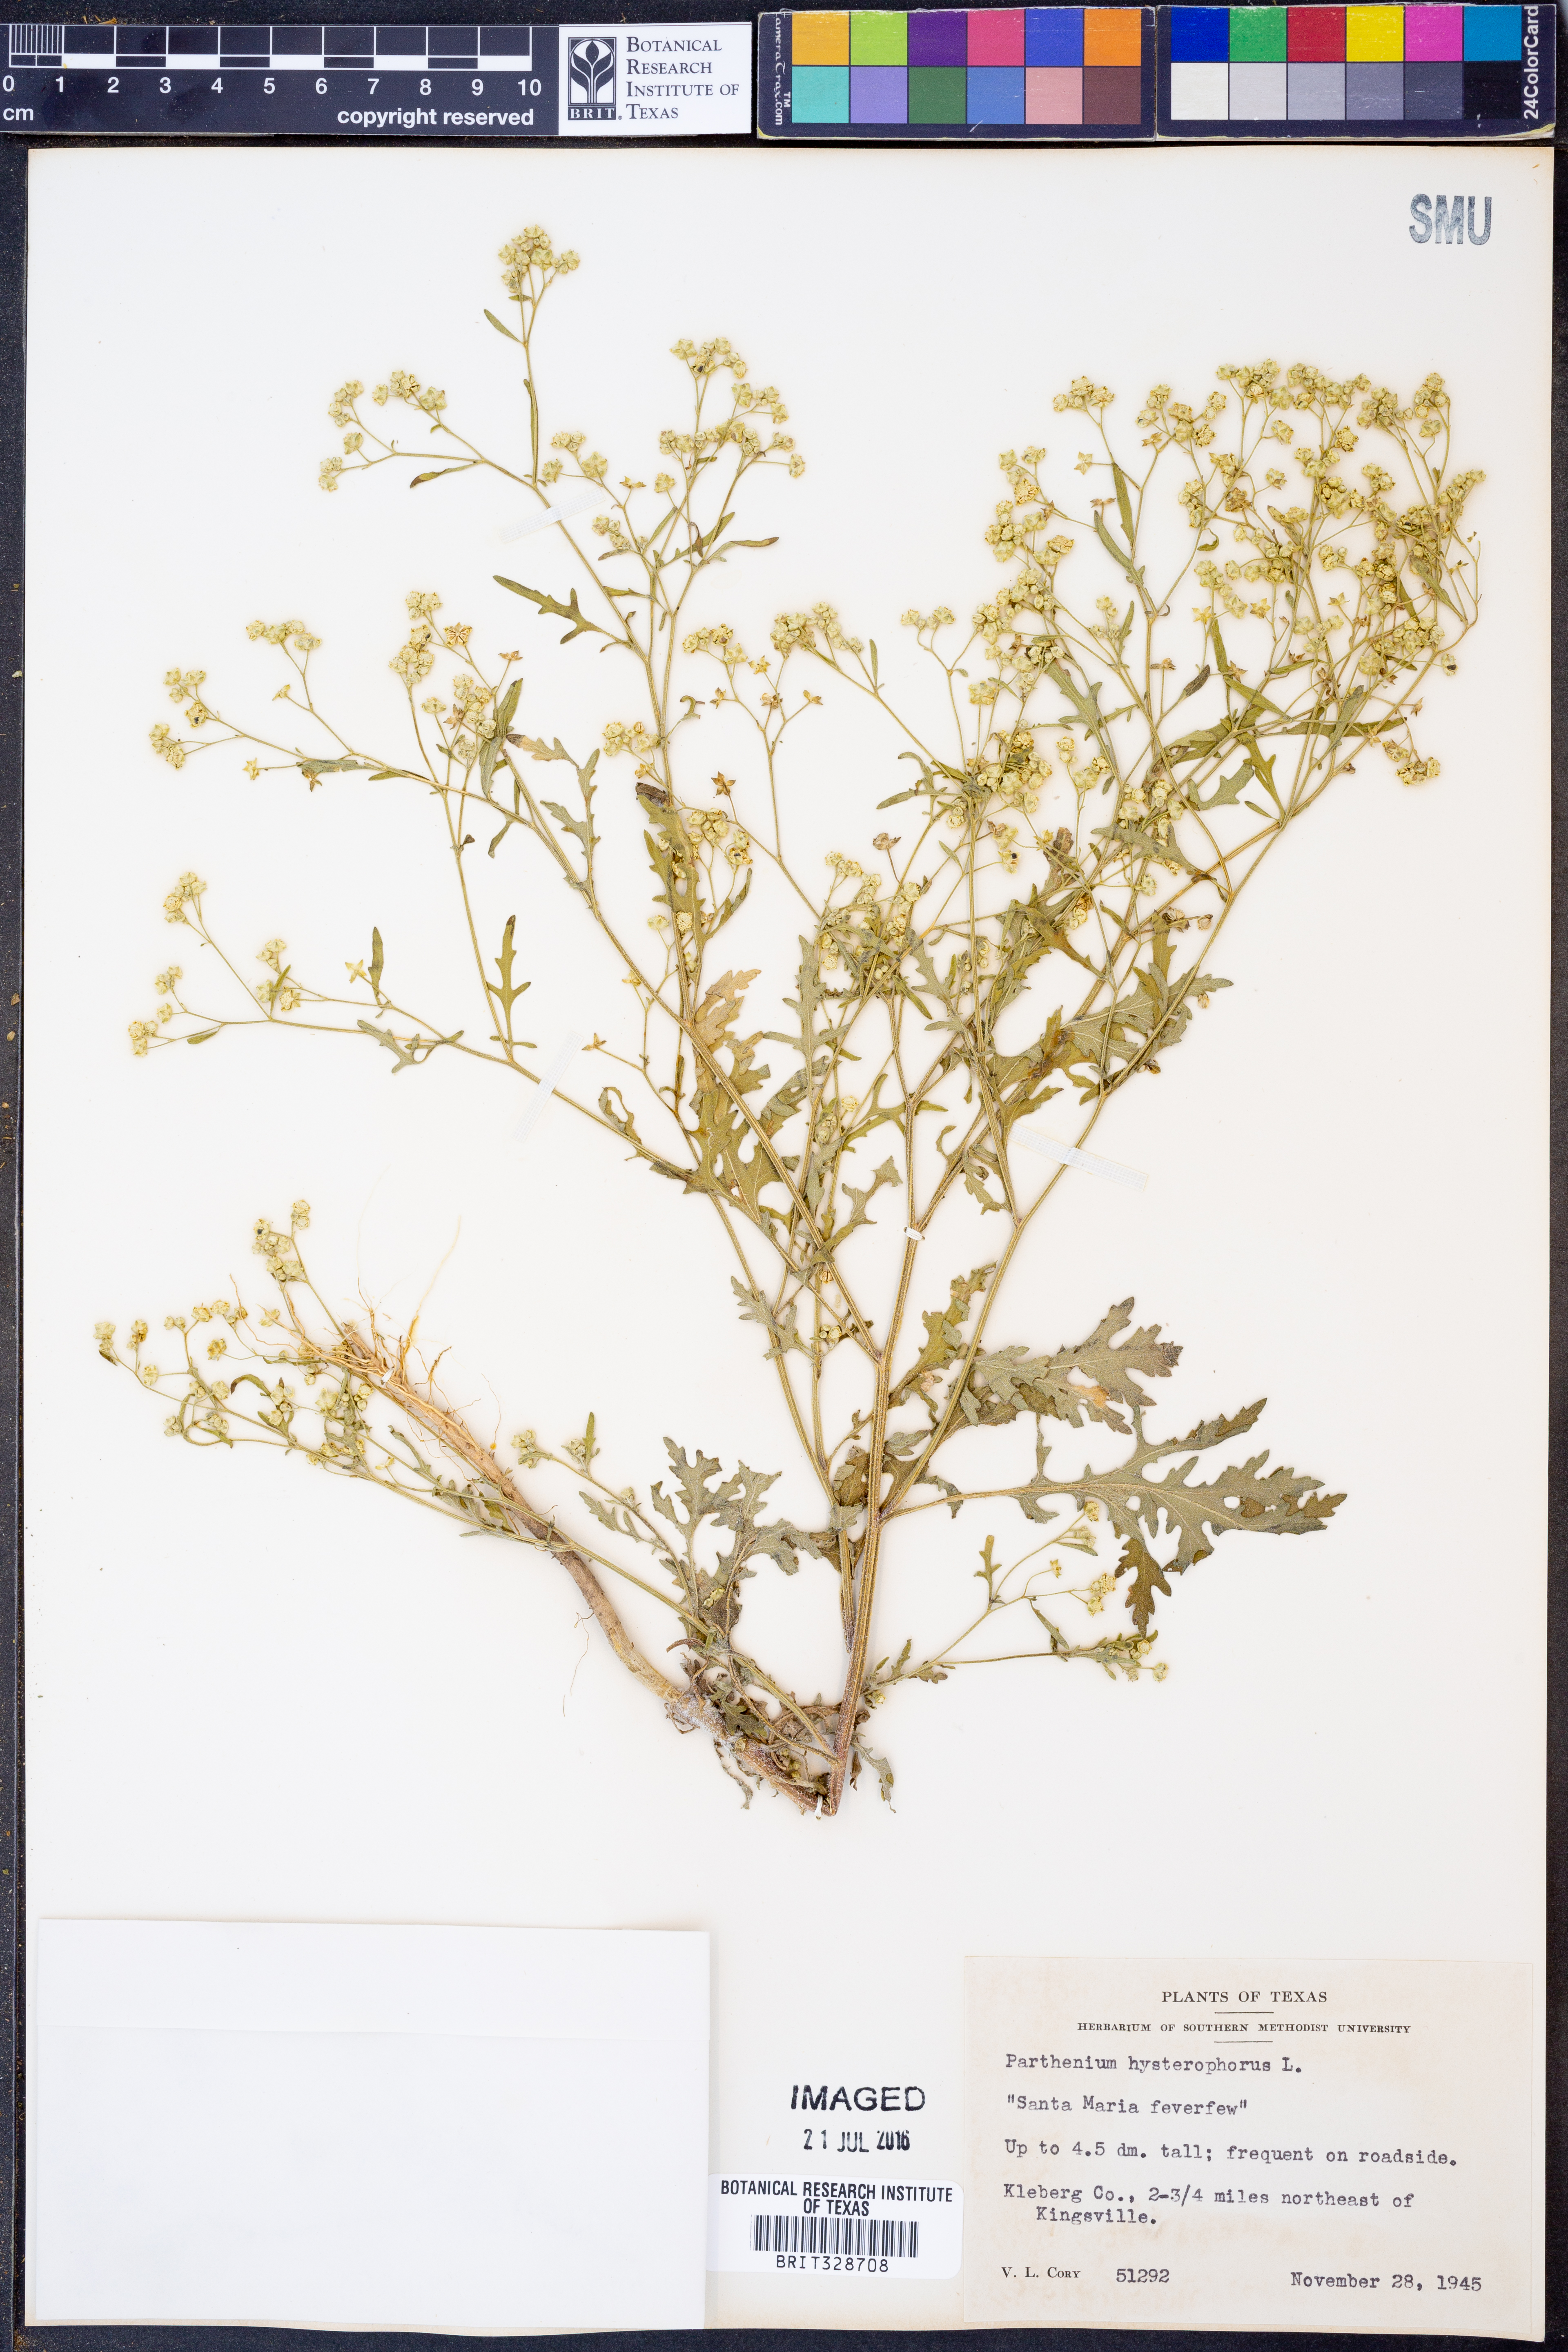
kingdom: Plantae
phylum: Tracheophyta
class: Magnoliopsida
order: Asterales
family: Asteraceae
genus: Parthenium
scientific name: Parthenium hysterophorus
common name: Santa maria feverfew
